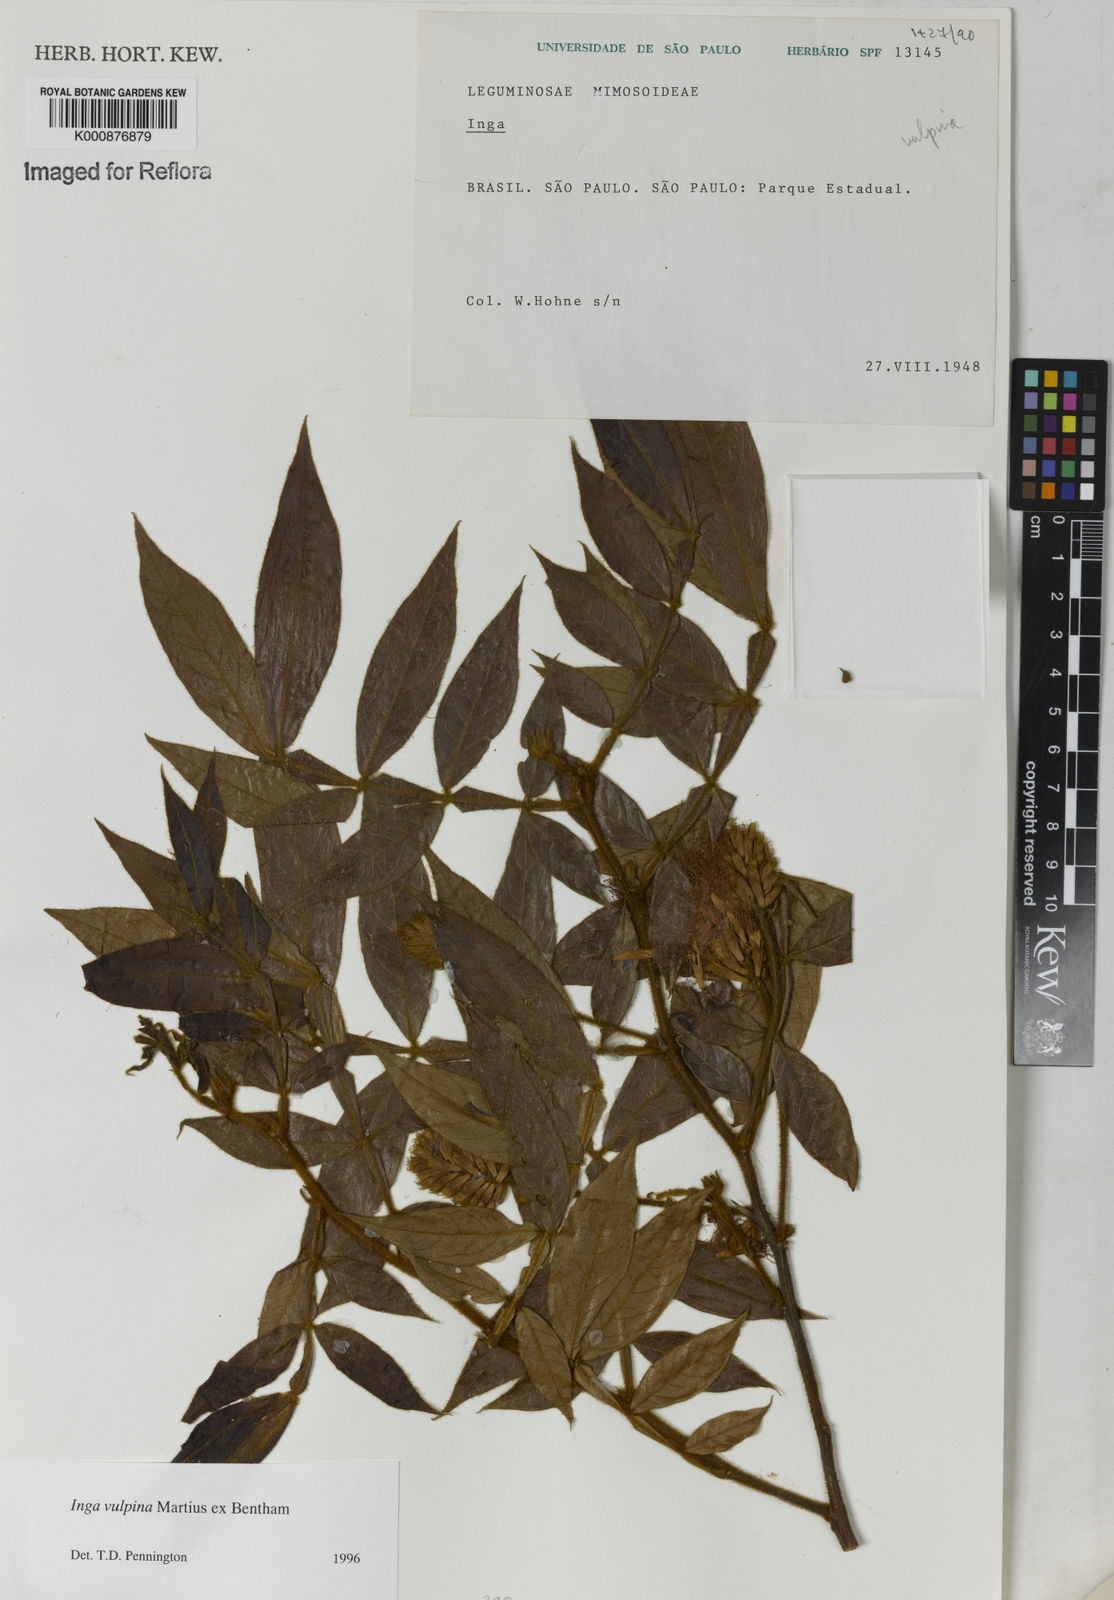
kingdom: Plantae
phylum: Tracheophyta
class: Magnoliopsida
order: Fabales
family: Fabaceae
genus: Inga
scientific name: Inga vulpina
